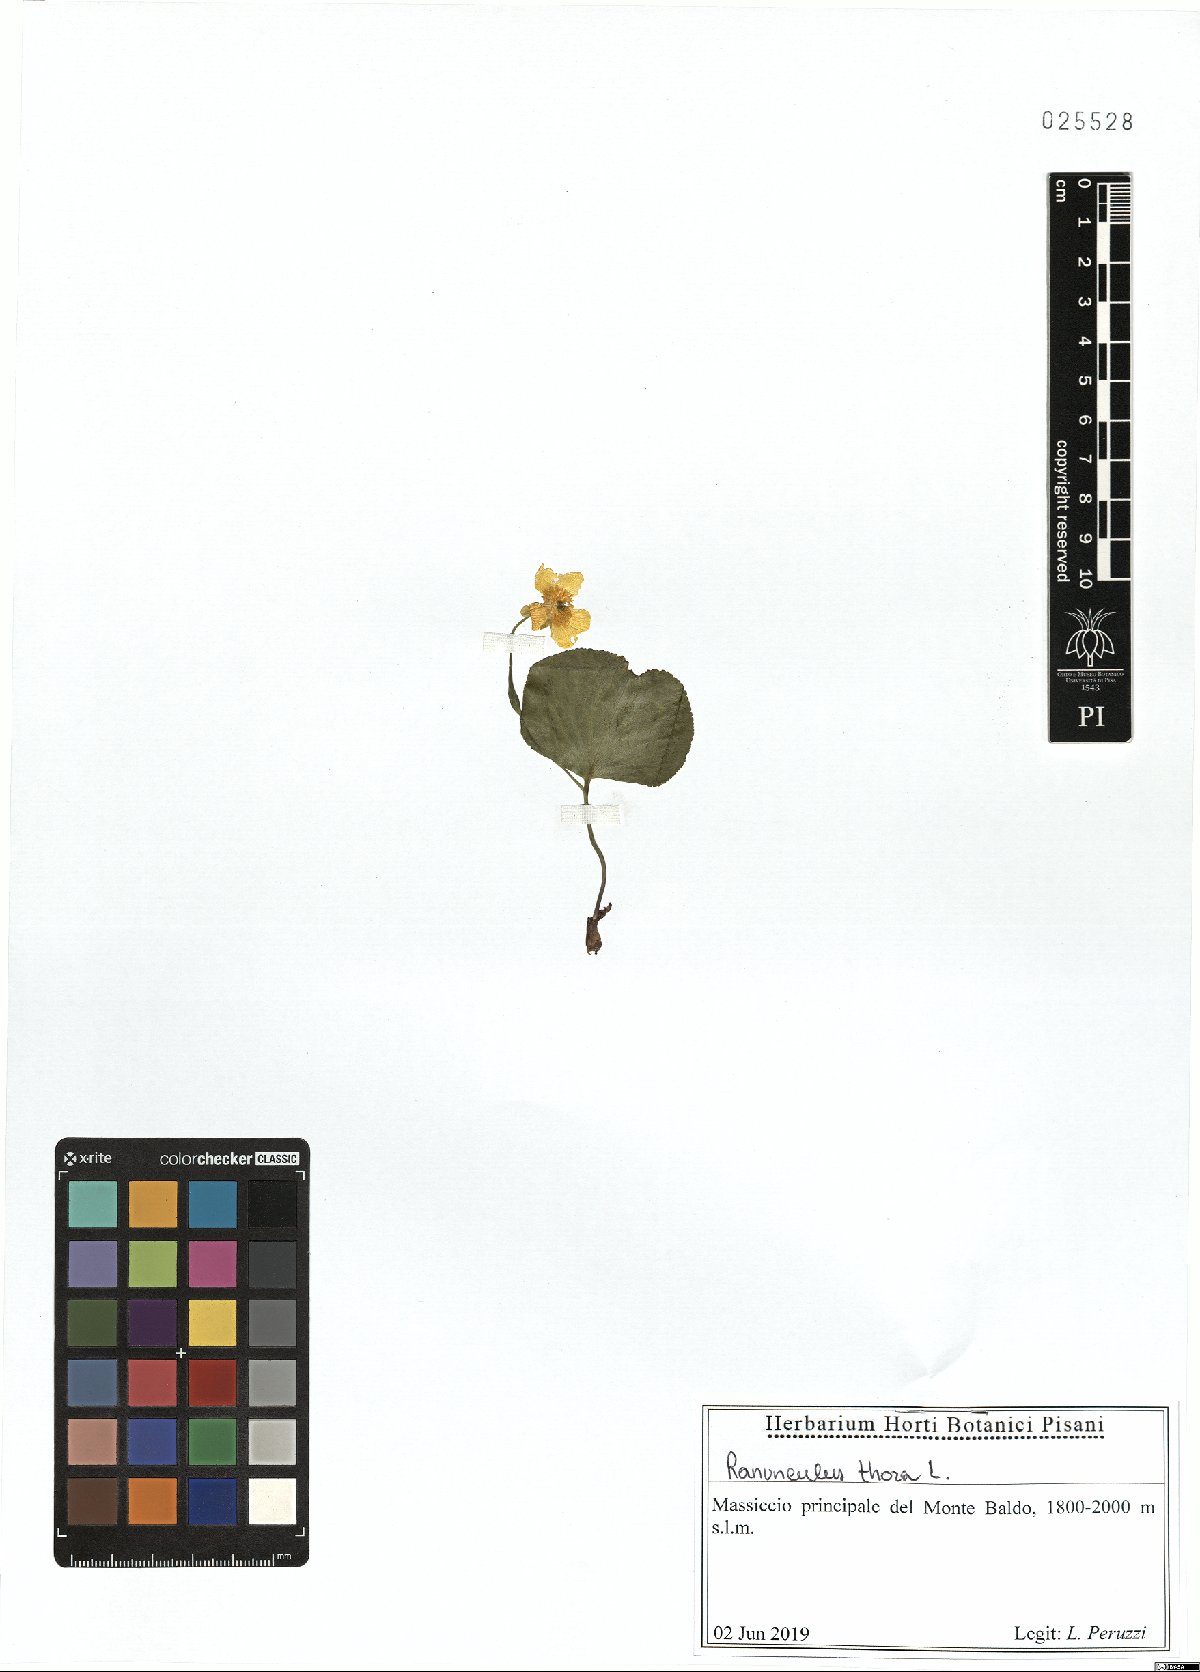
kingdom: Plantae
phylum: Tracheophyta
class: Magnoliopsida
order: Ranunculales
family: Ranunculaceae
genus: Ranunculus
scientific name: Ranunculus thora
